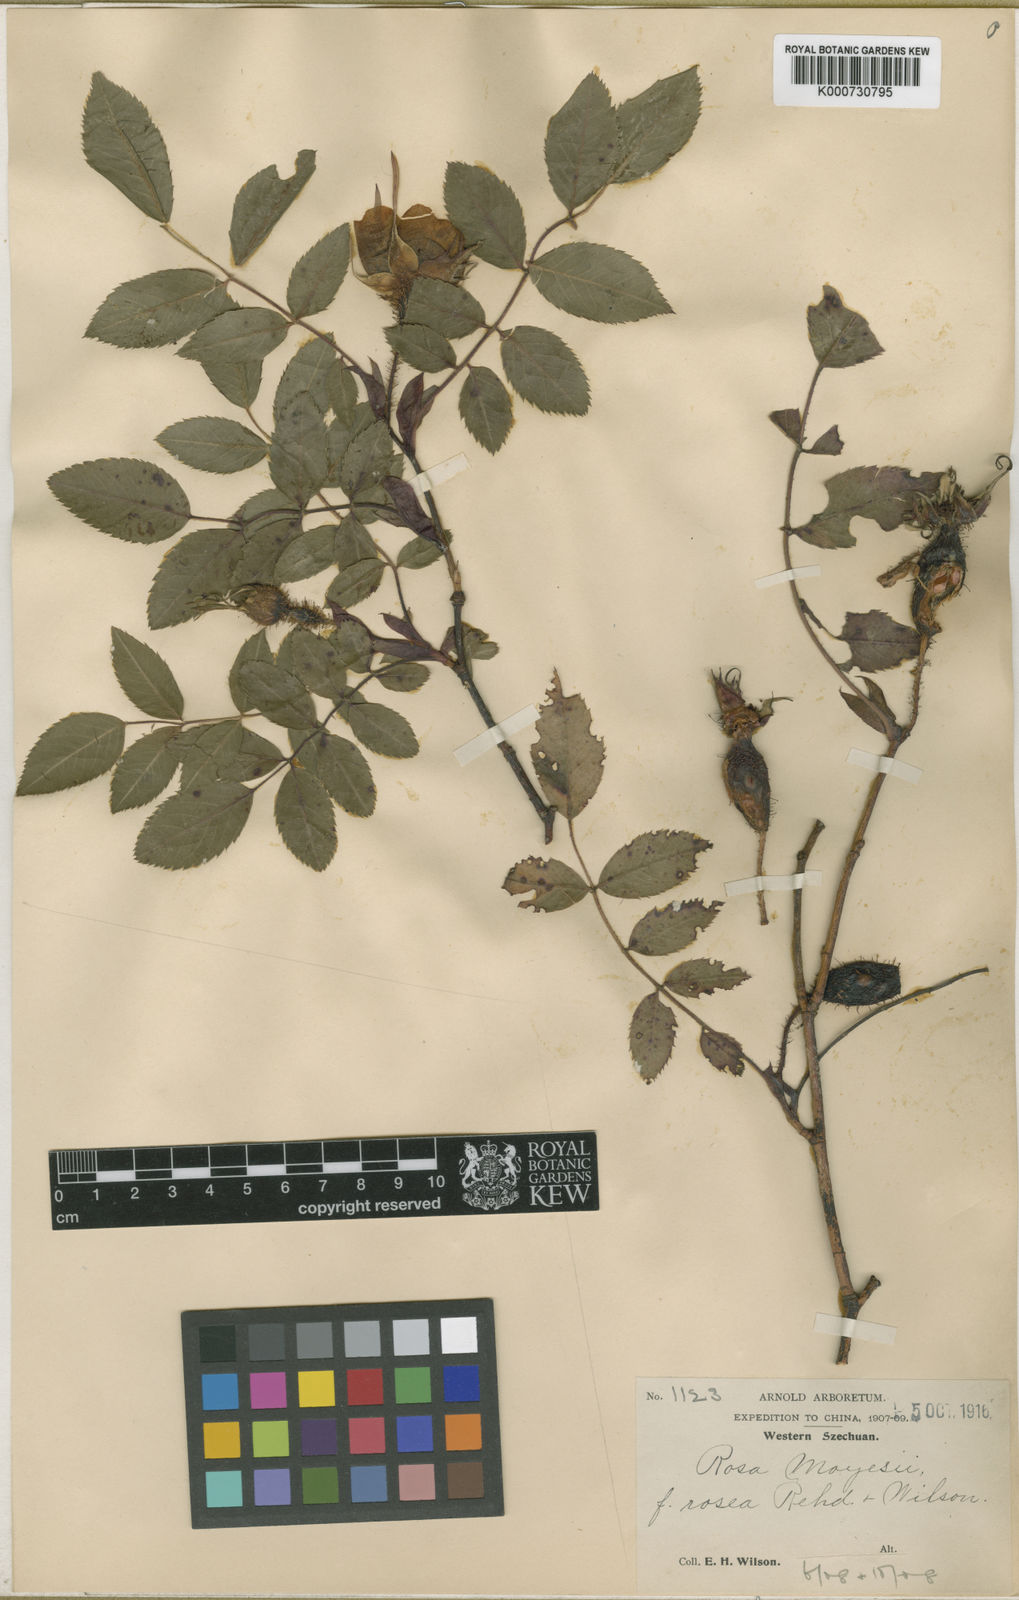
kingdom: Plantae
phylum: Tracheophyta
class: Magnoliopsida
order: Rosales
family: Rosaceae
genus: Rosa
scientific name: Rosa moyesii
